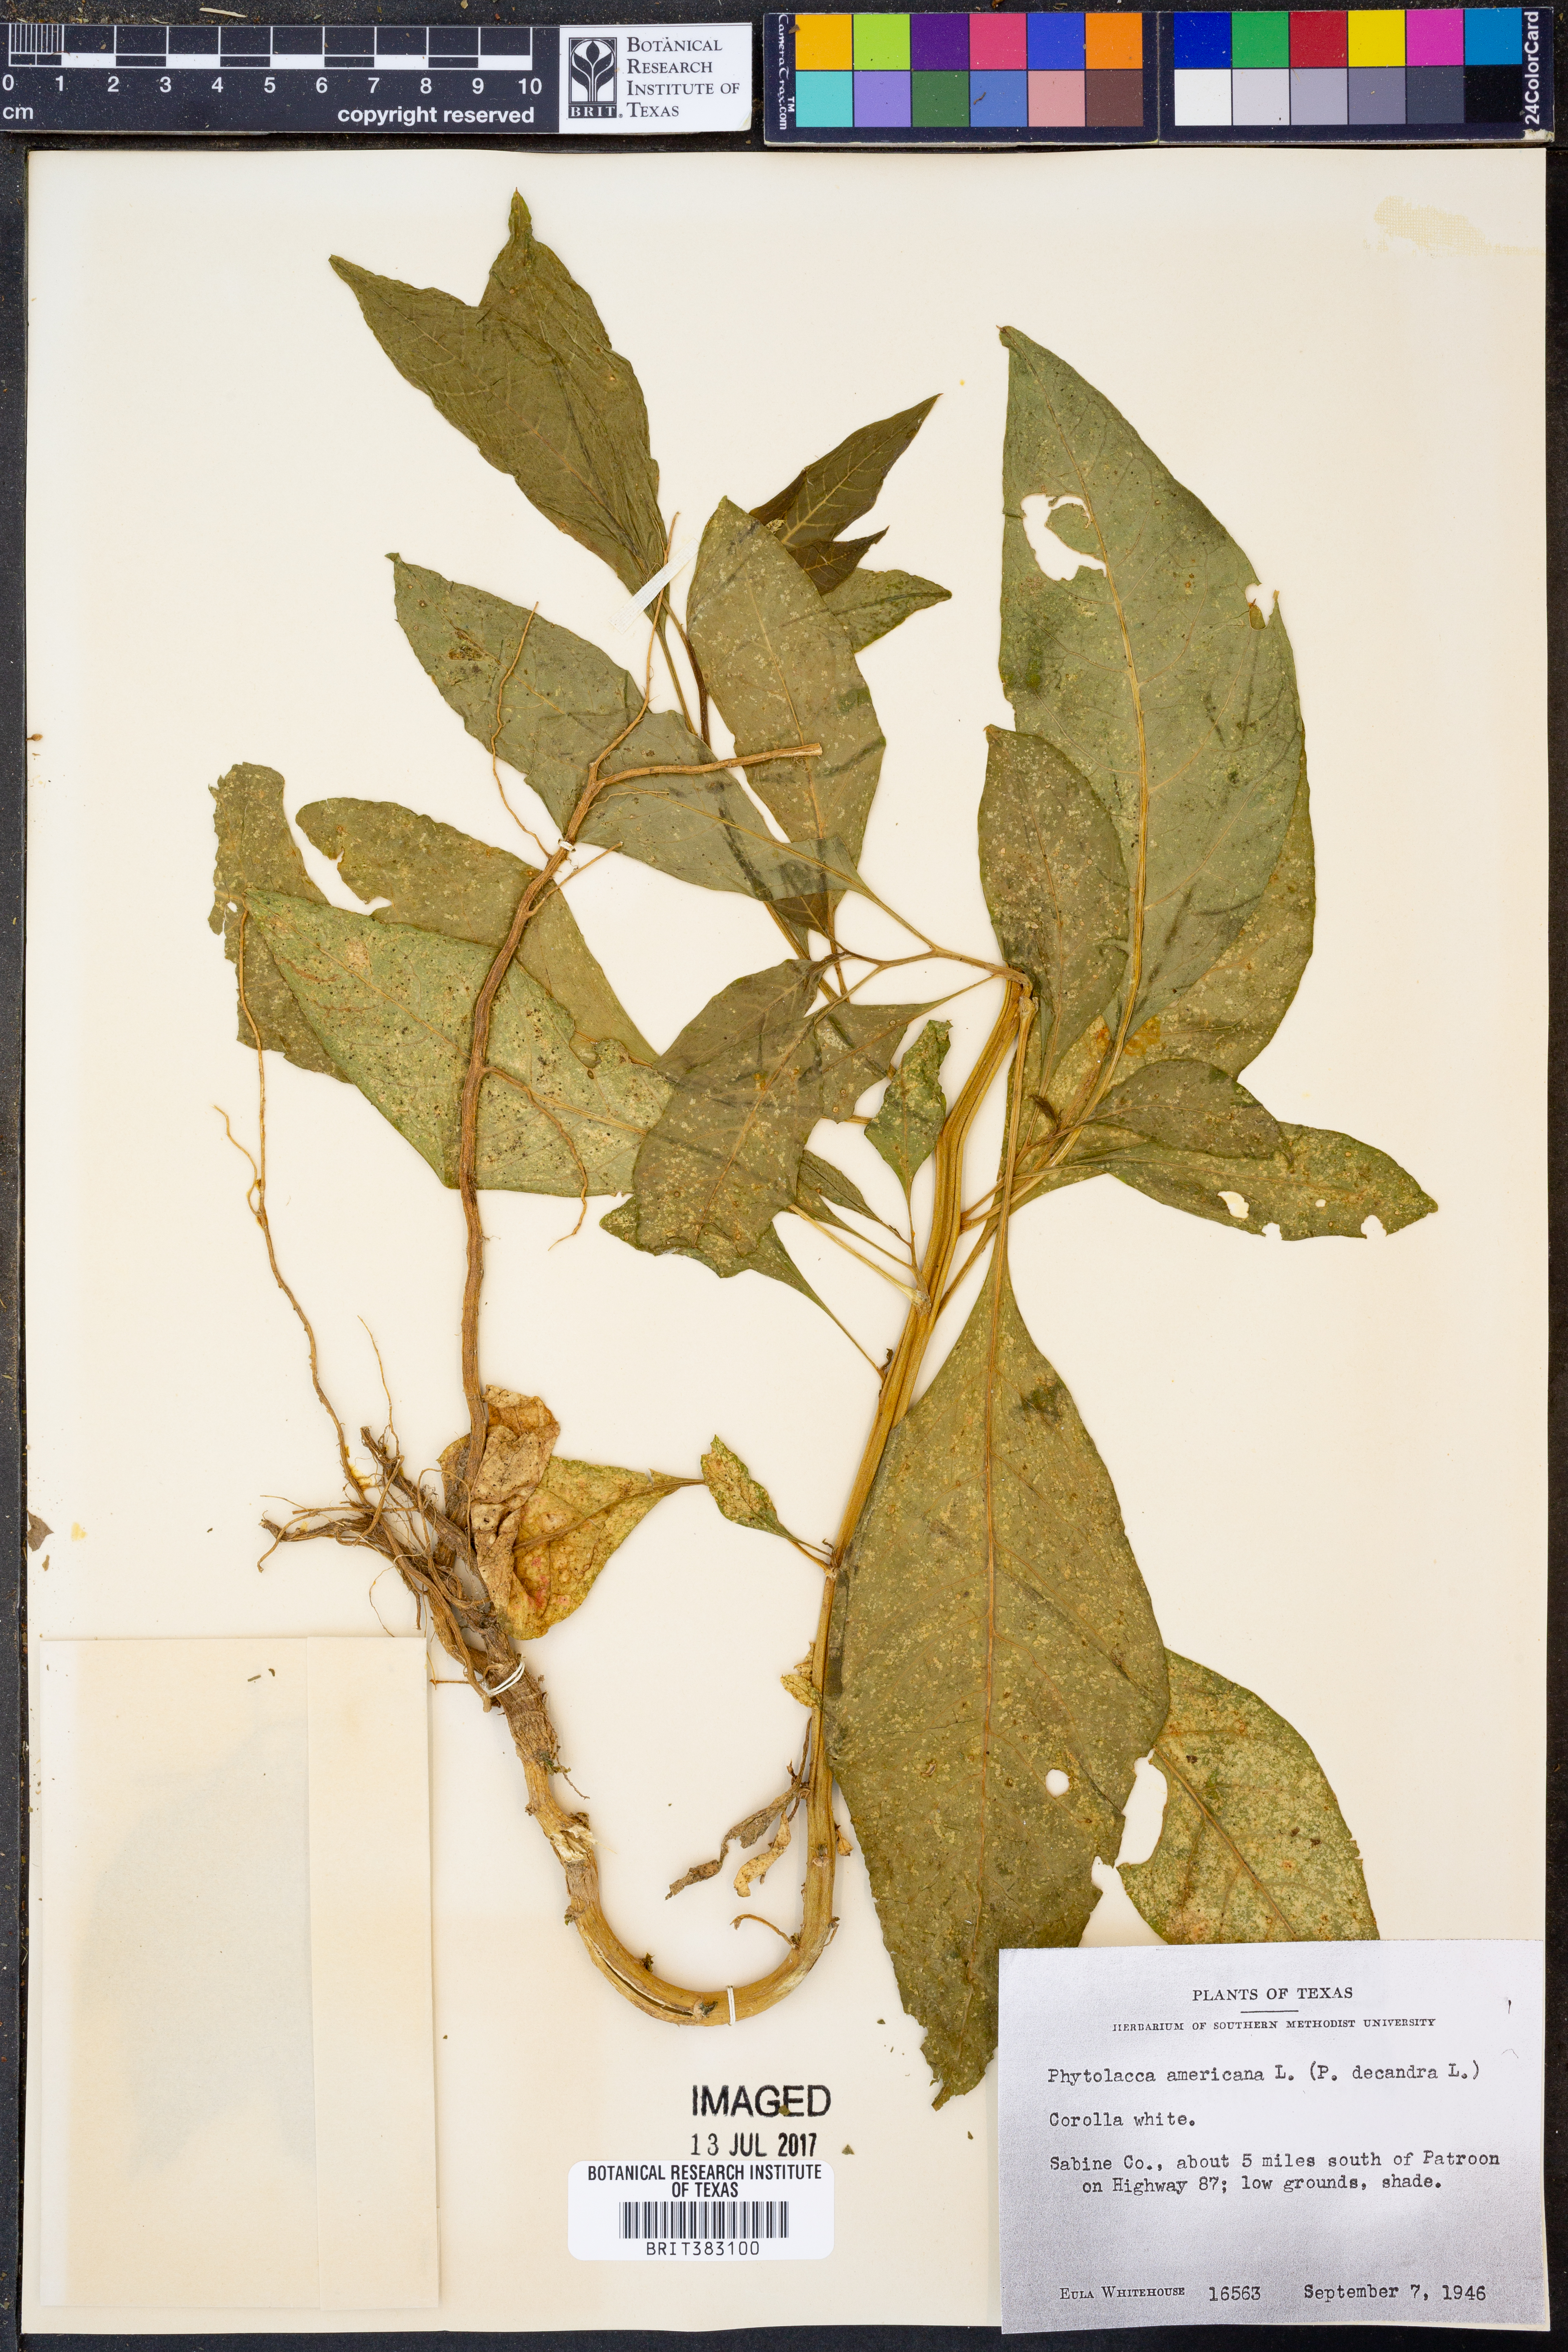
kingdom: Plantae
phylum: Tracheophyta
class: Magnoliopsida
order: Caryophyllales
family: Phytolaccaceae
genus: Phytolacca
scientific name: Phytolacca americana
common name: American pokeweed
